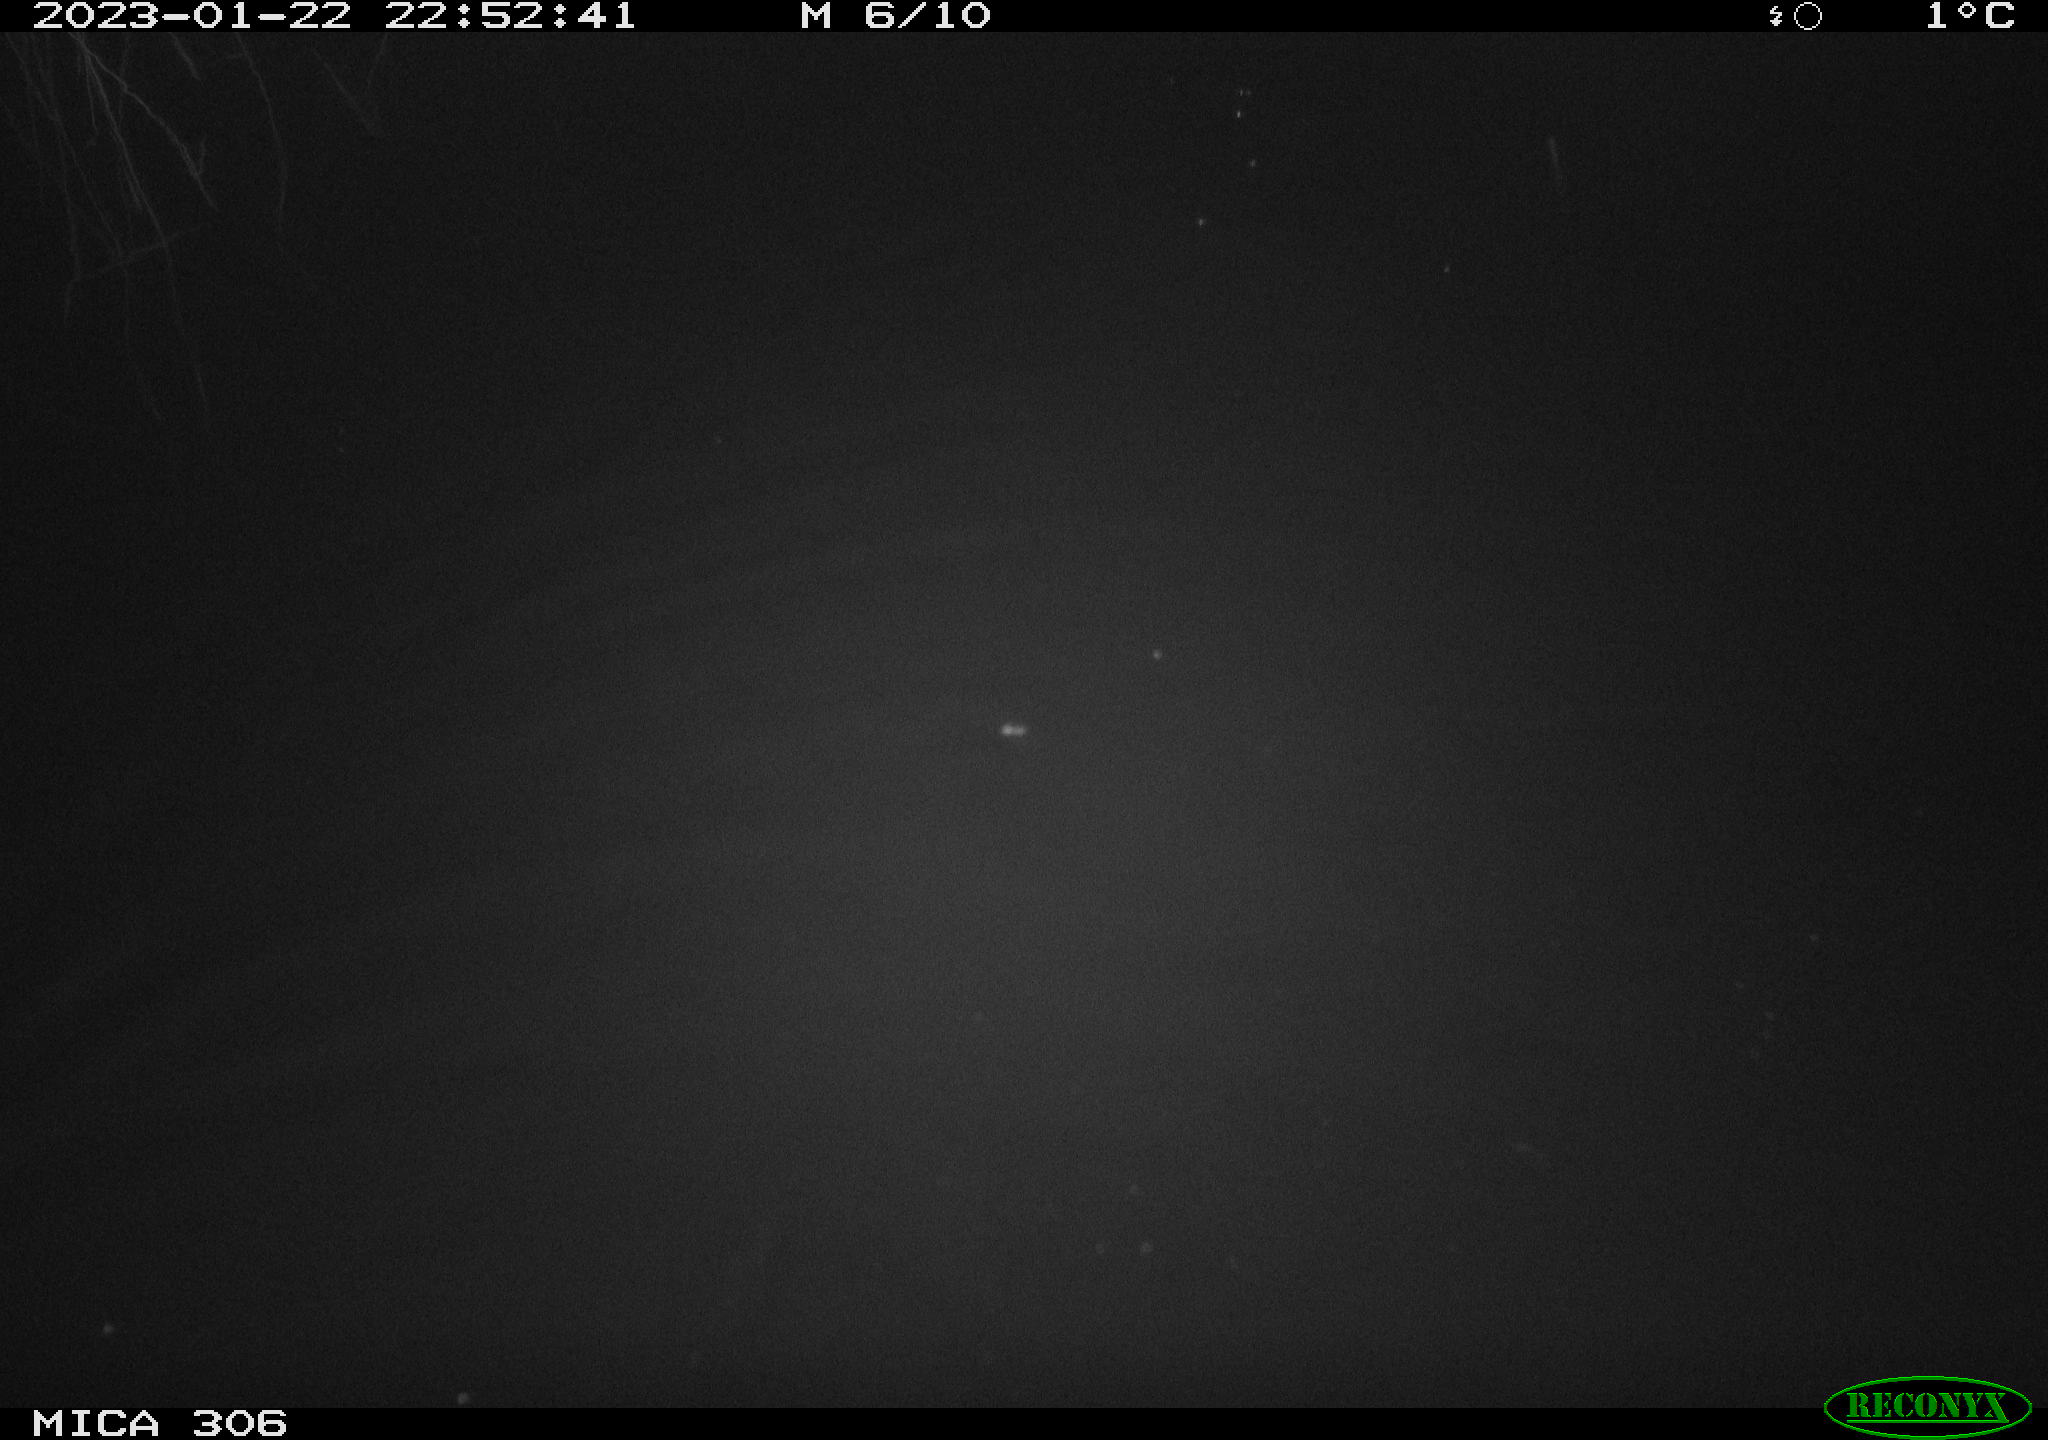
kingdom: Animalia
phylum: Chordata
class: Mammalia
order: Rodentia
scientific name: Rodentia
